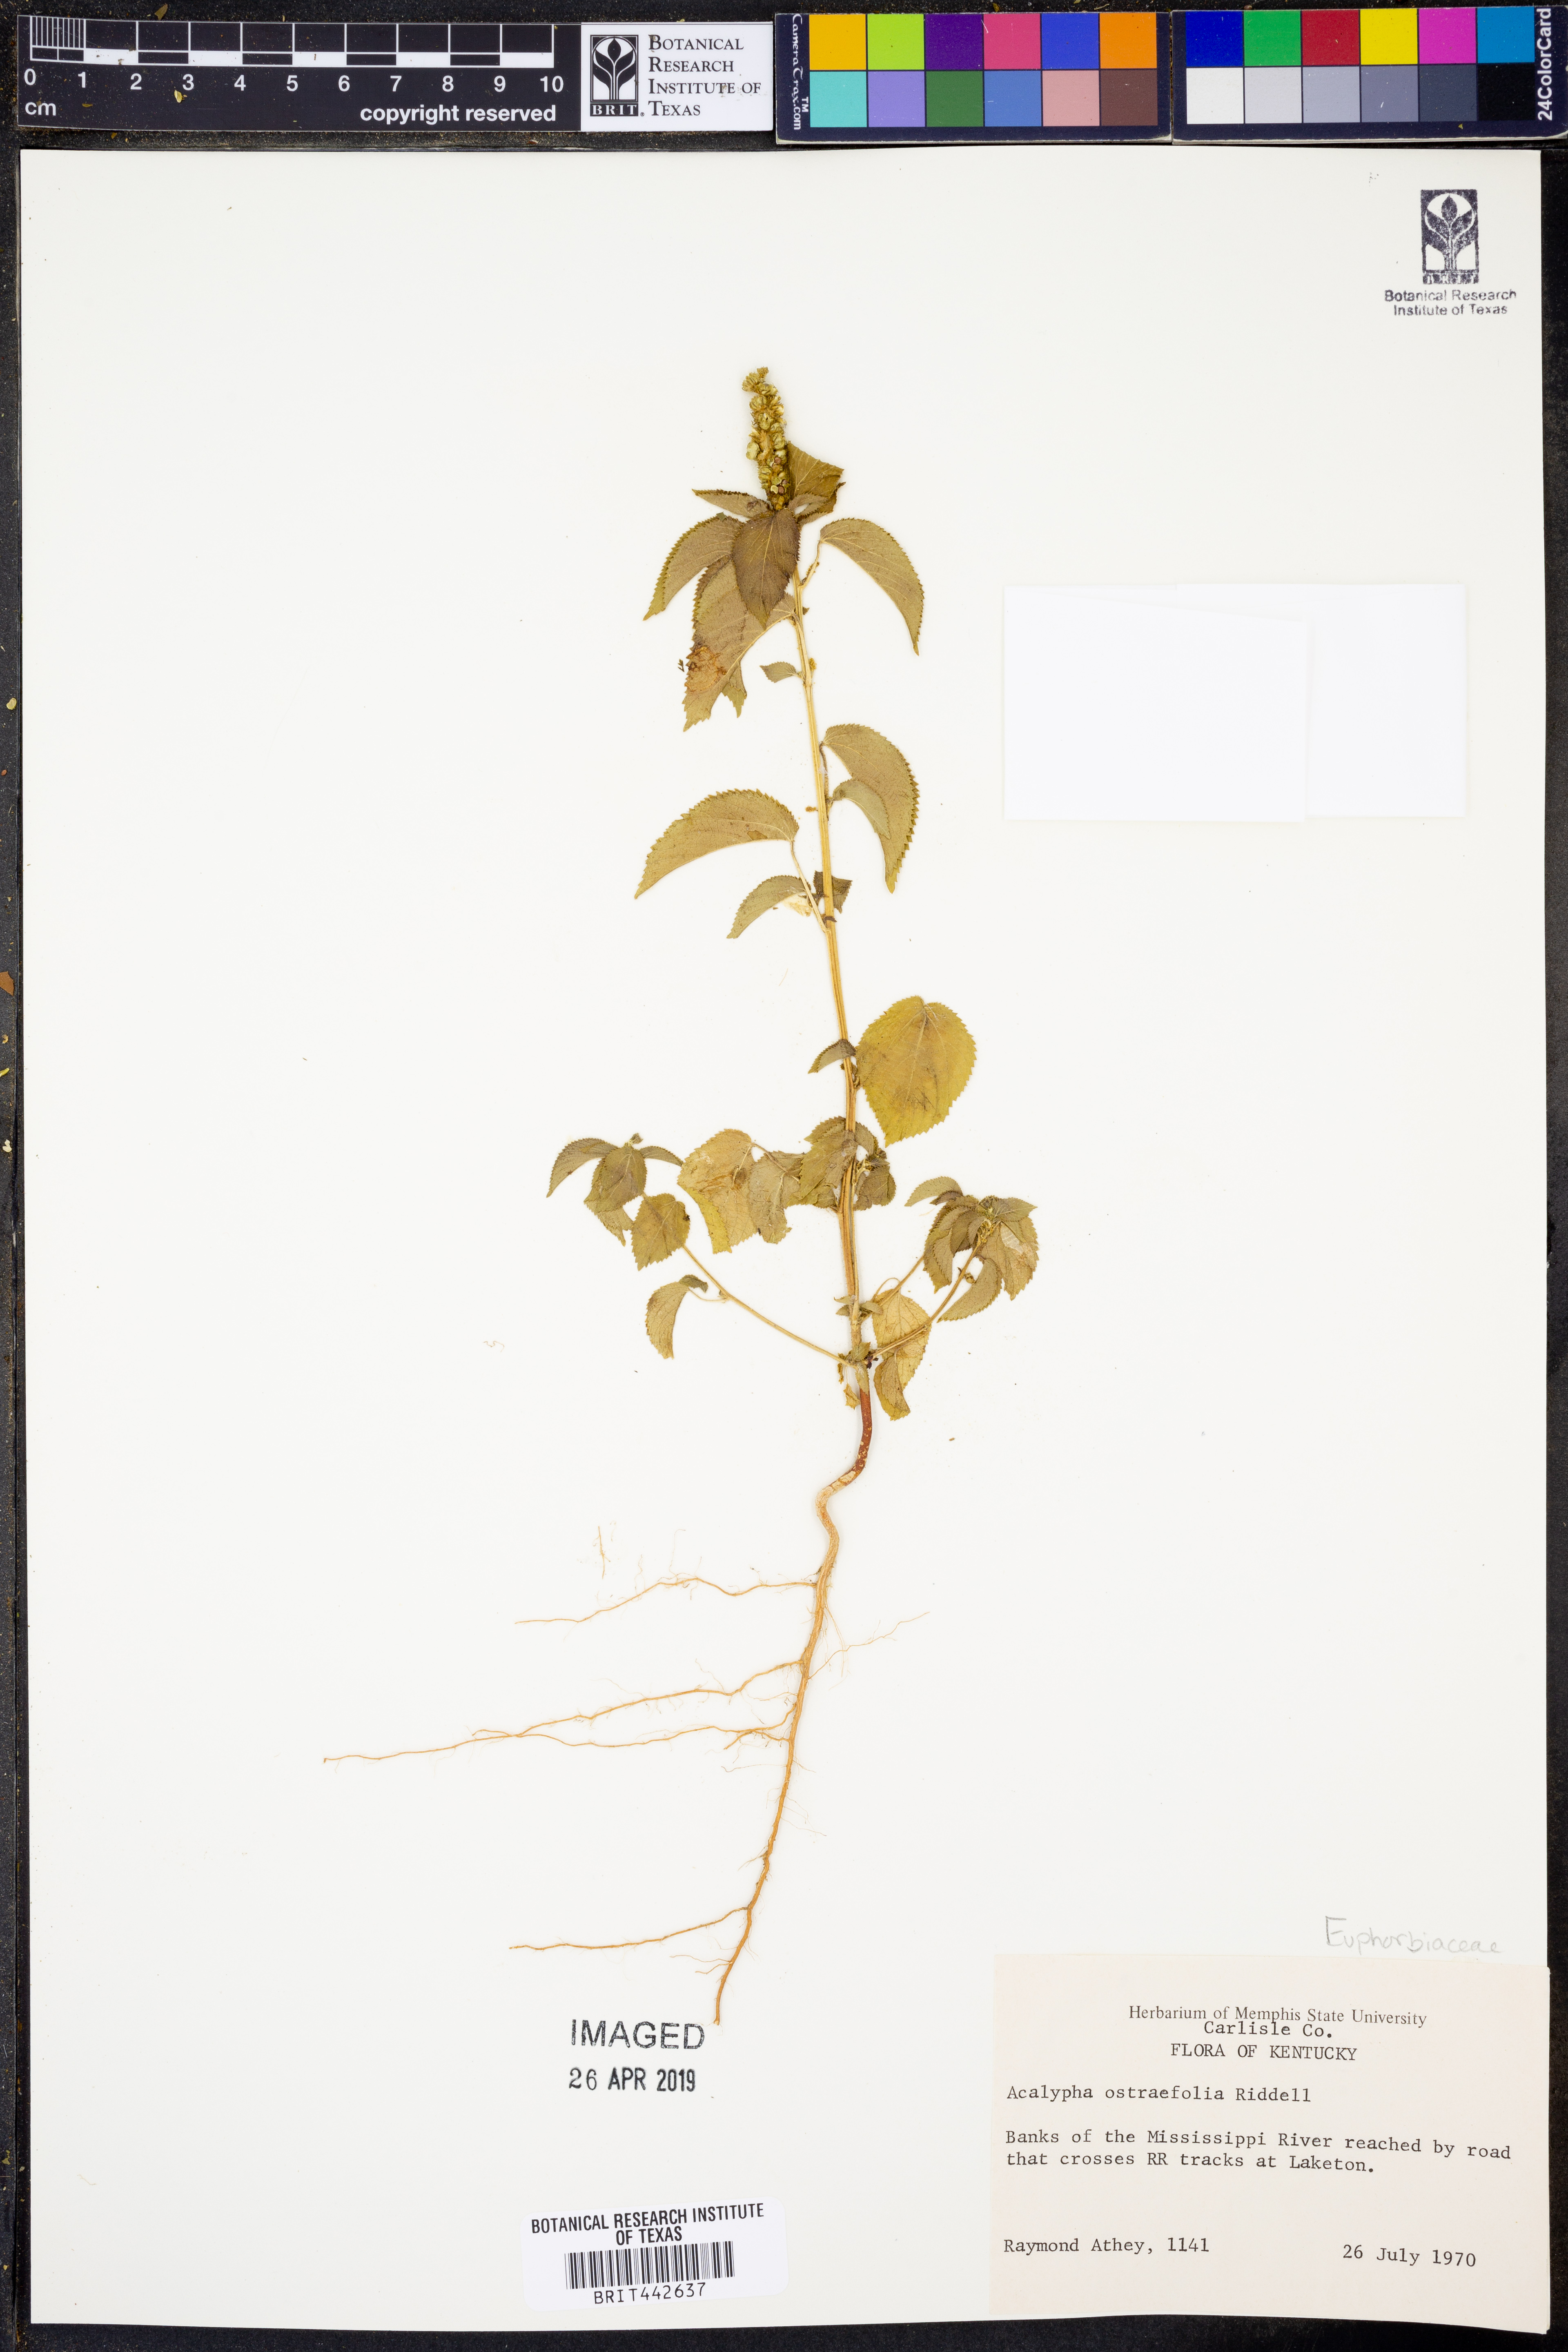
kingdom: Plantae
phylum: Tracheophyta
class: Magnoliopsida
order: Malpighiales
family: Euphorbiaceae
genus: Acalypha
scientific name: Acalypha ostryifolia
